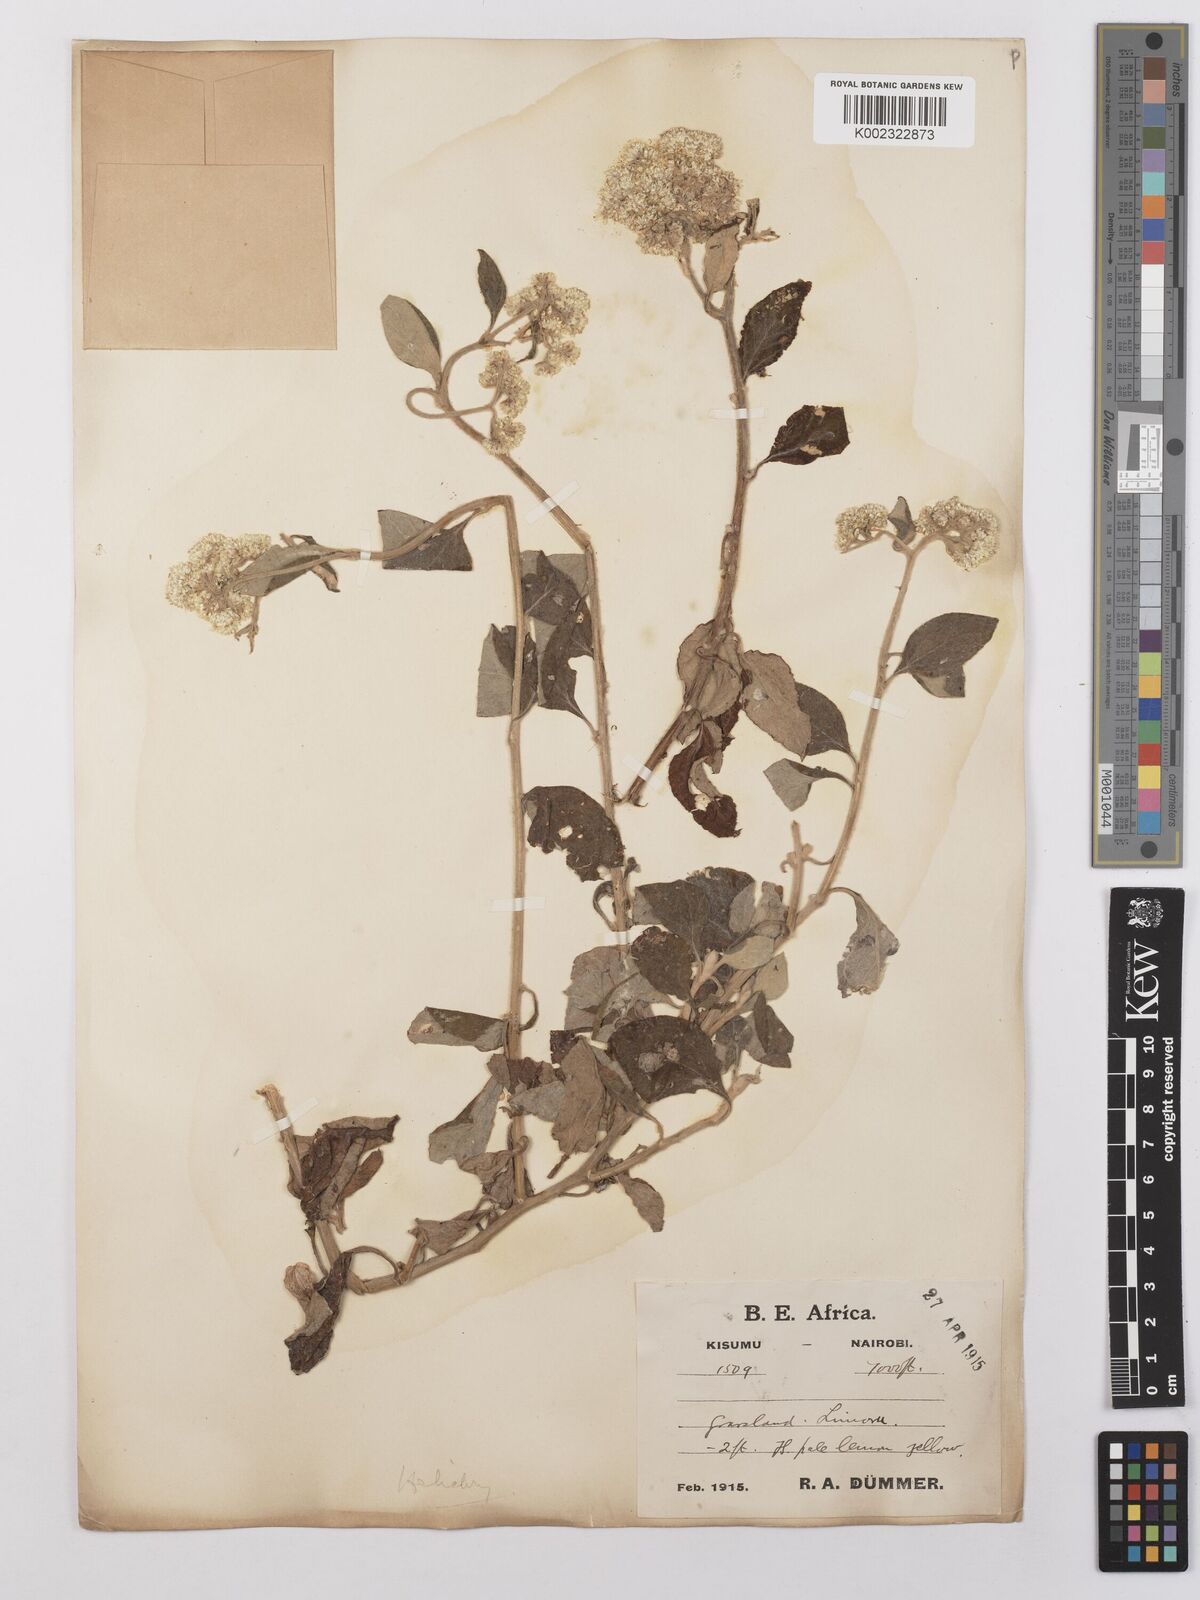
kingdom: Plantae
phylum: Tracheophyta
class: Magnoliopsida
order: Asterales
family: Asteraceae
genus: Helichrysum
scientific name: Helichrysum schimperi
